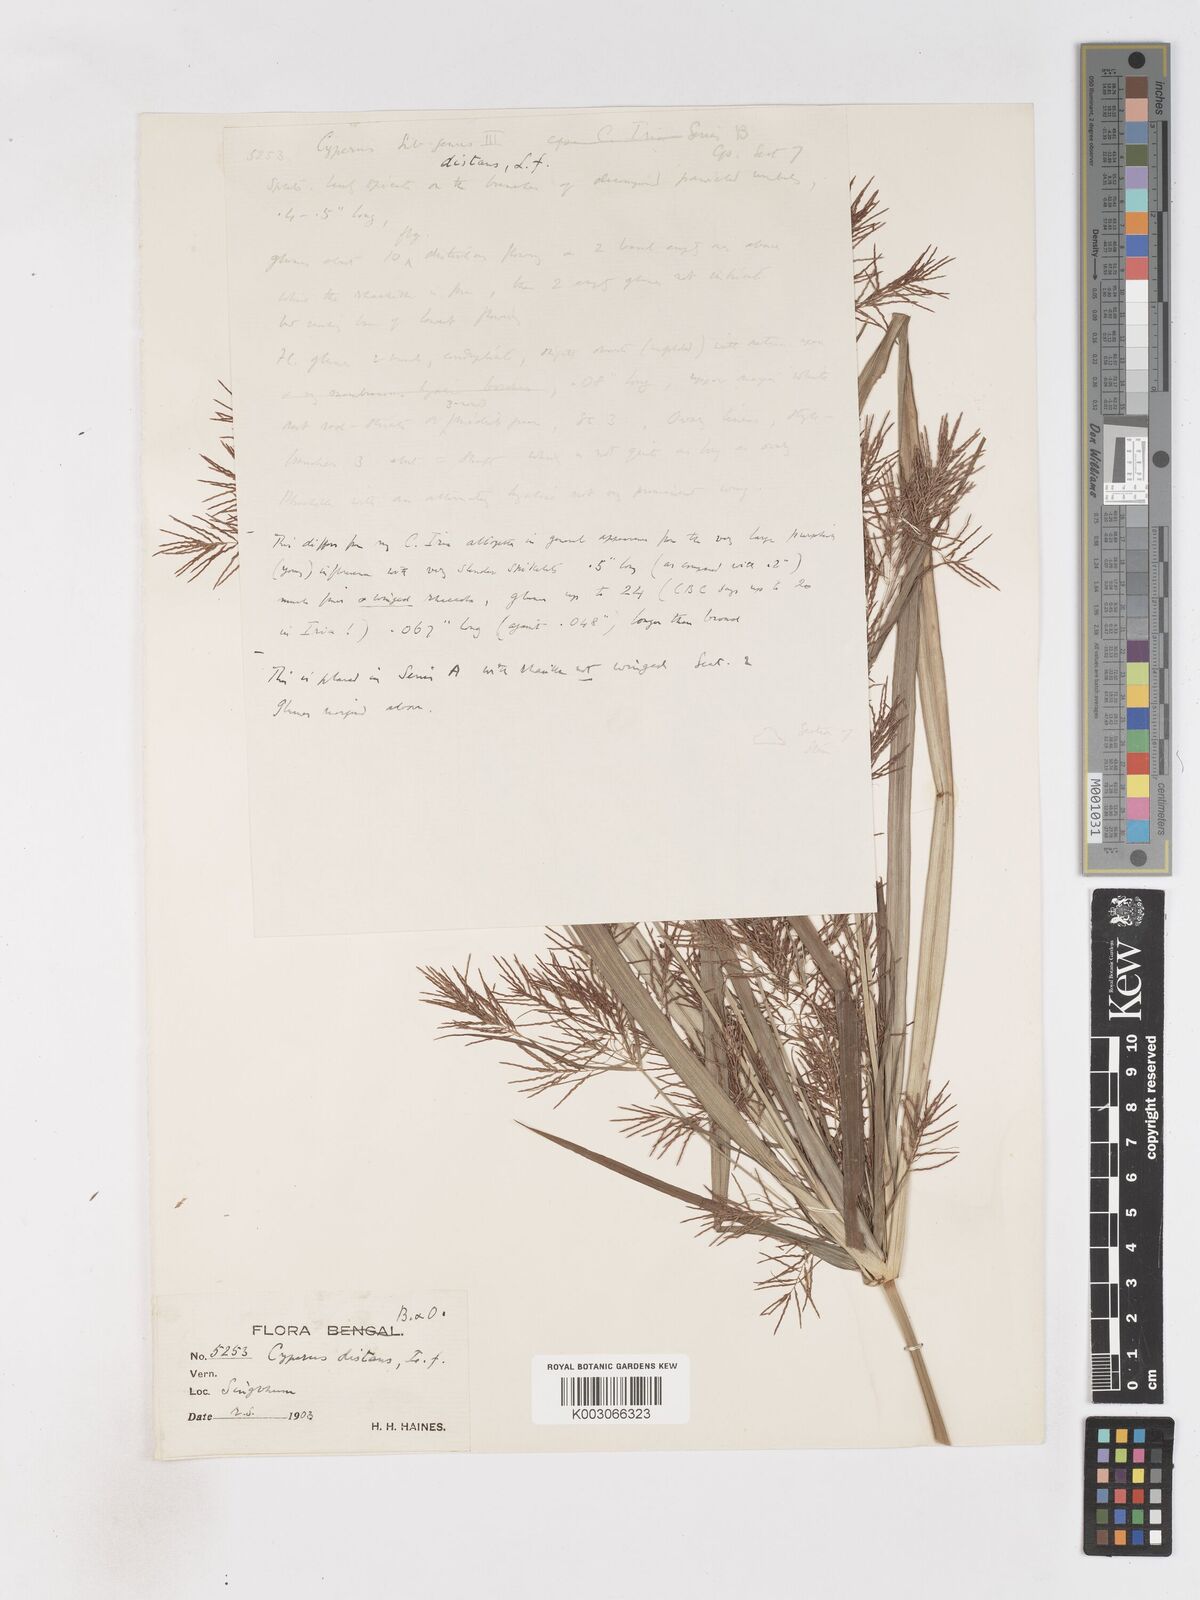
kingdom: Plantae
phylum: Tracheophyta
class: Liliopsida
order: Poales
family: Cyperaceae
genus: Cyperus
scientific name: Cyperus distans
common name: Slender cyperus
